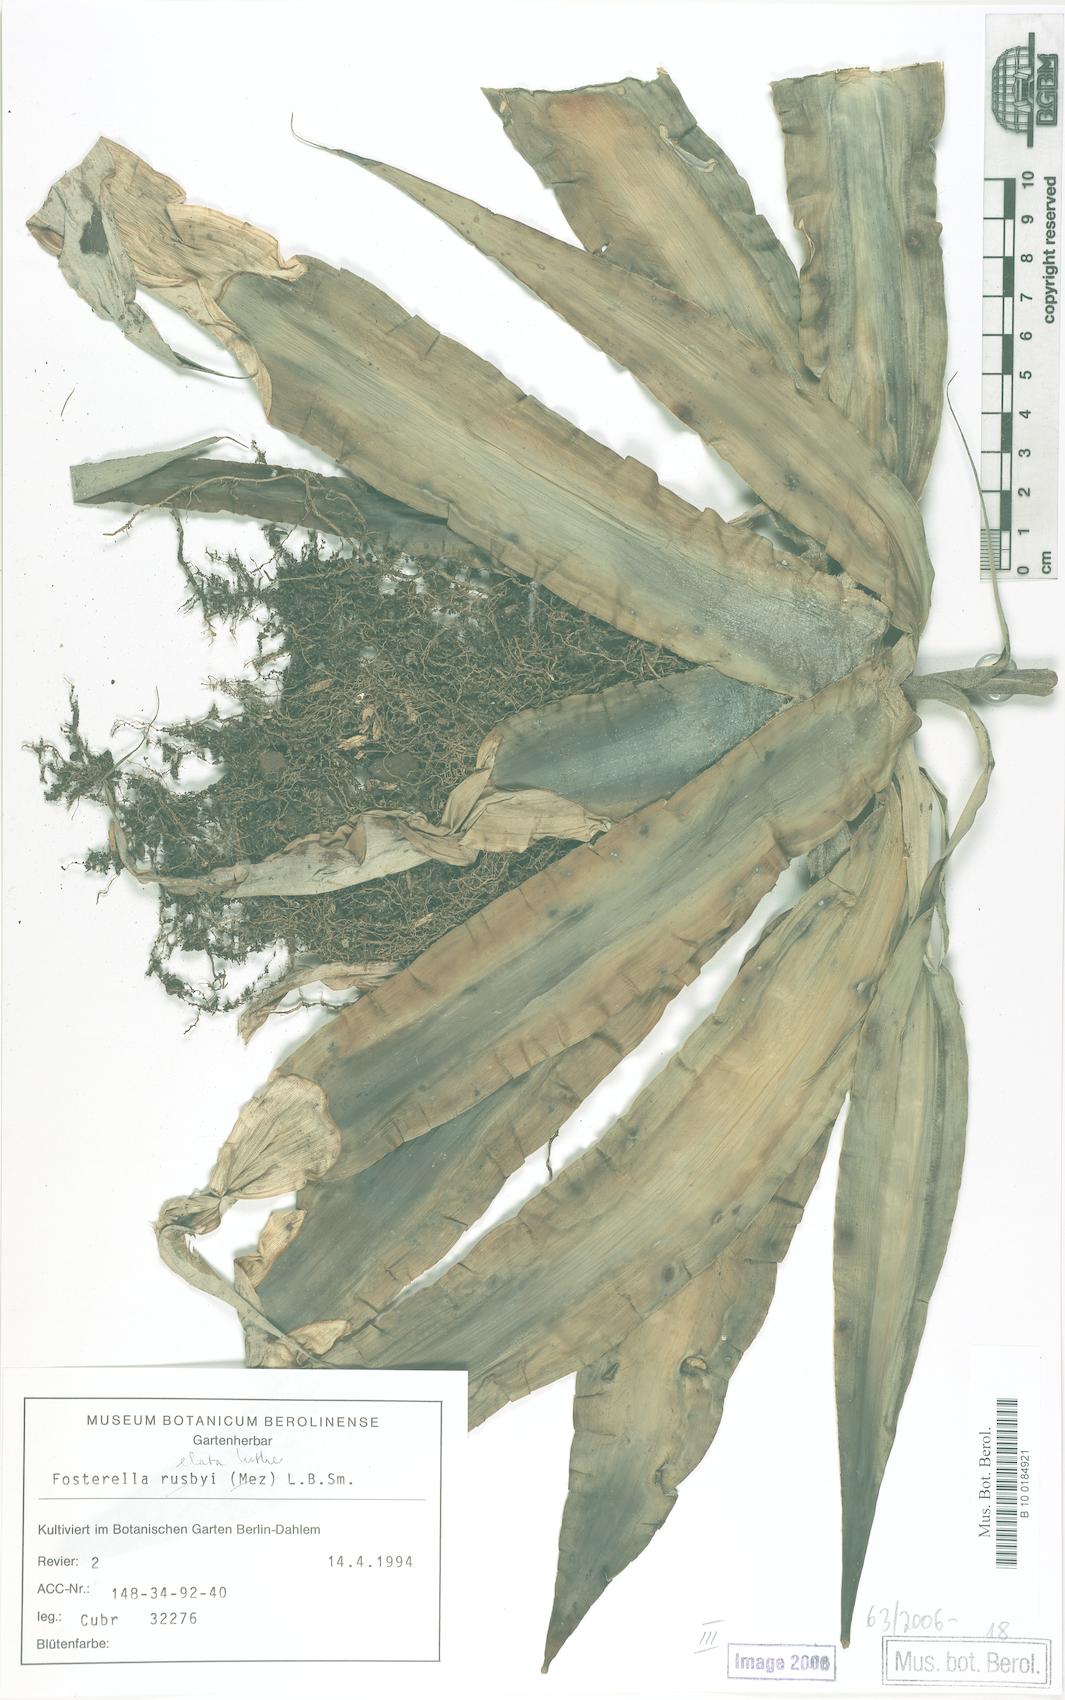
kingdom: Plantae
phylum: Tracheophyta
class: Liliopsida
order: Poales
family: Bromeliaceae
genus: Fosterella
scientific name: Fosterella rusbyi
